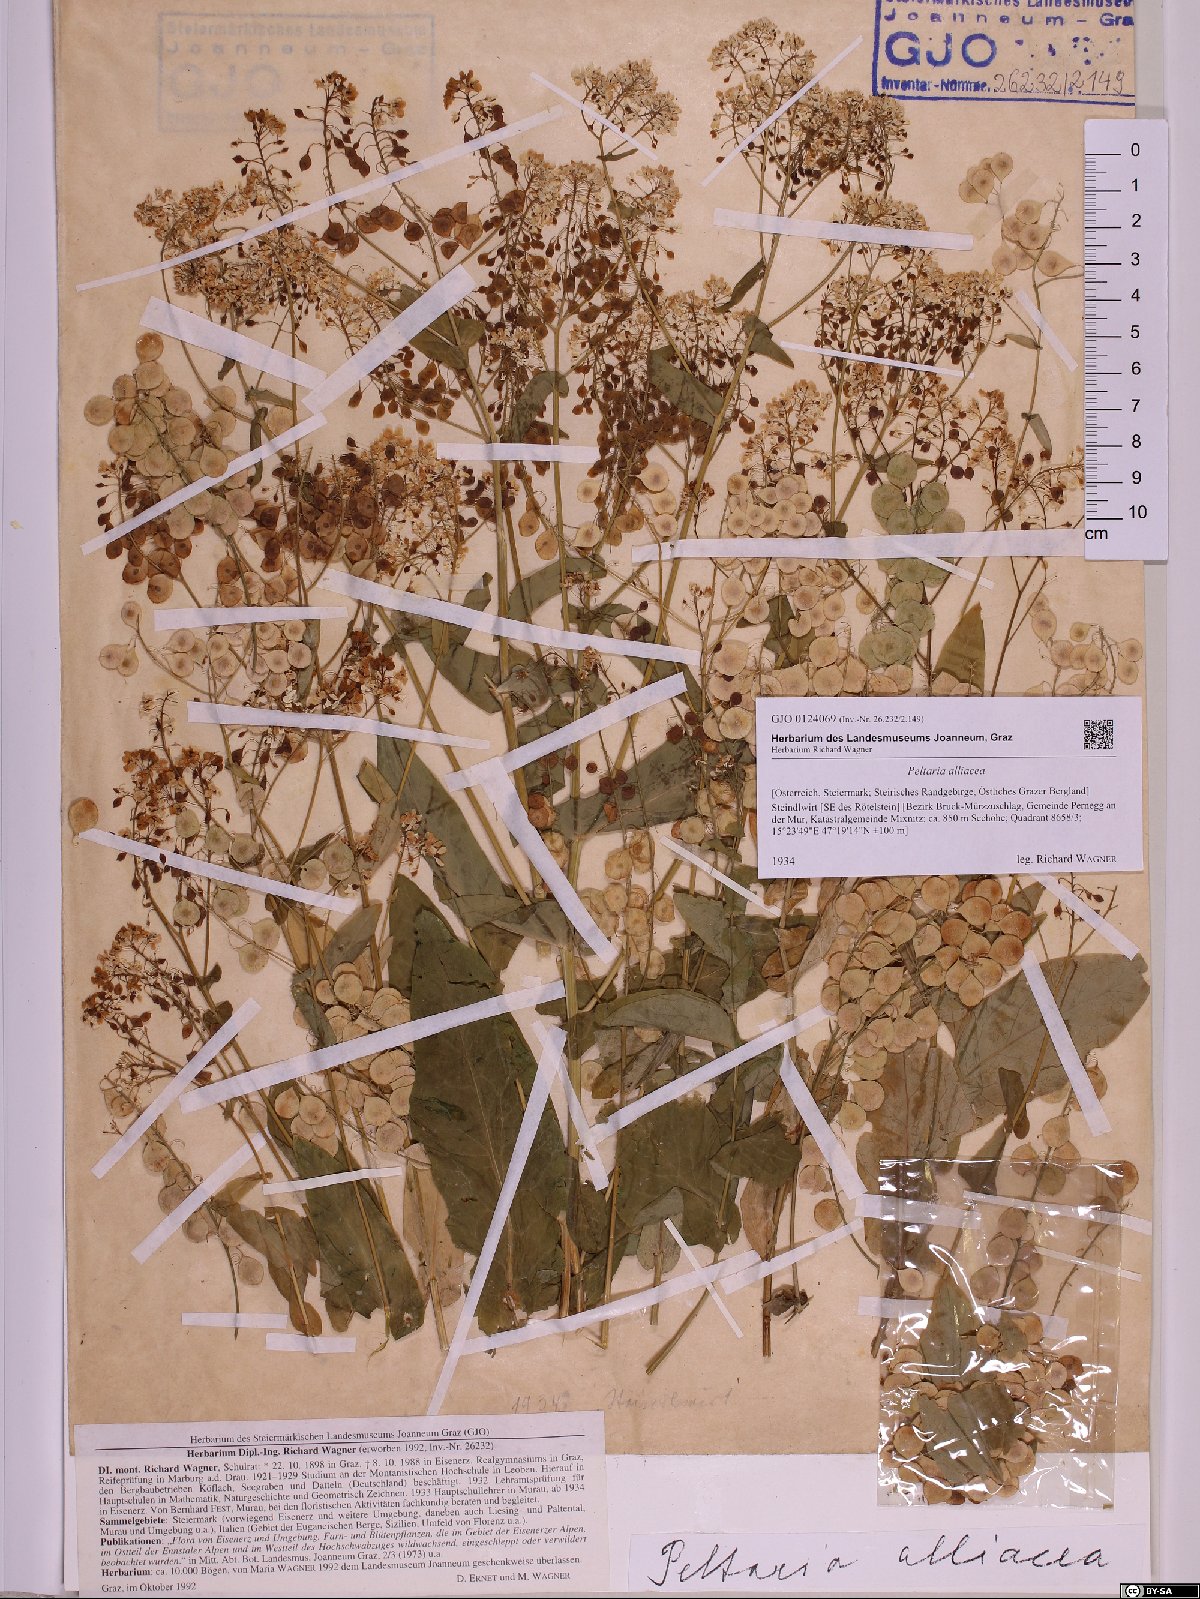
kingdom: Plantae
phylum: Tracheophyta
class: Magnoliopsida
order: Brassicales
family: Brassicaceae
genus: Peltaria
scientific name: Peltaria alliacea
